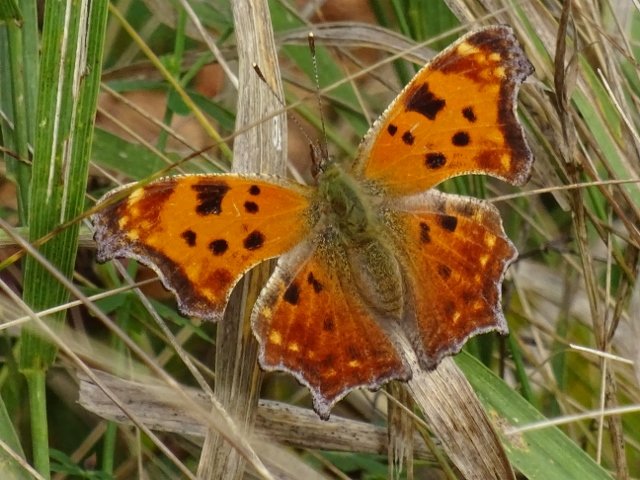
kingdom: Animalia
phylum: Arthropoda
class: Insecta
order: Lepidoptera
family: Nymphalidae
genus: Polygonia
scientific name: Polygonia comma
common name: Eastern Comma
